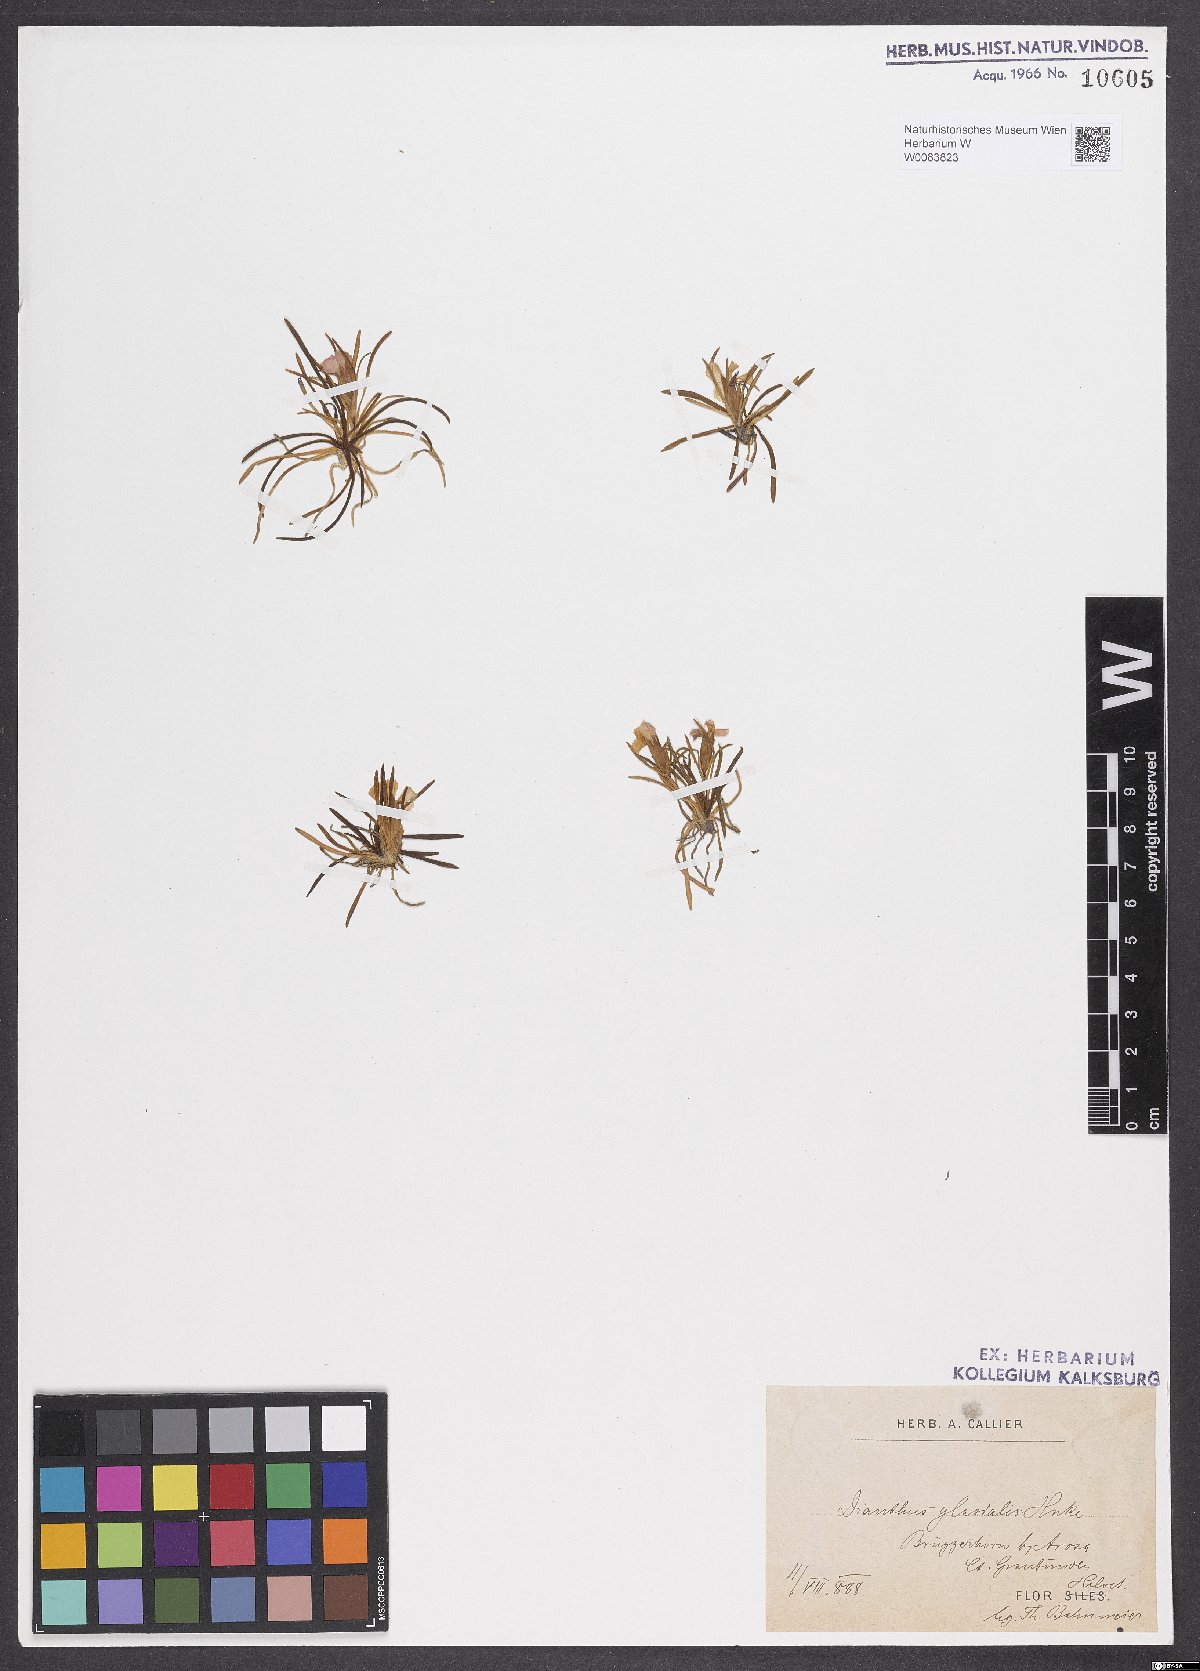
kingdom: Plantae
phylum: Tracheophyta
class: Magnoliopsida
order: Caryophyllales
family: Caryophyllaceae
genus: Dianthus
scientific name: Dianthus glacialis
